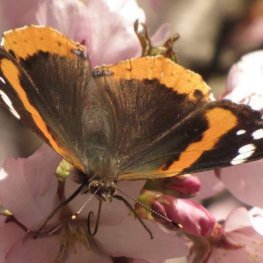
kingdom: Animalia
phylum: Arthropoda
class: Insecta
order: Lepidoptera
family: Nymphalidae
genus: Vanessa
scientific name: Vanessa atalanta
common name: Red Admiral
